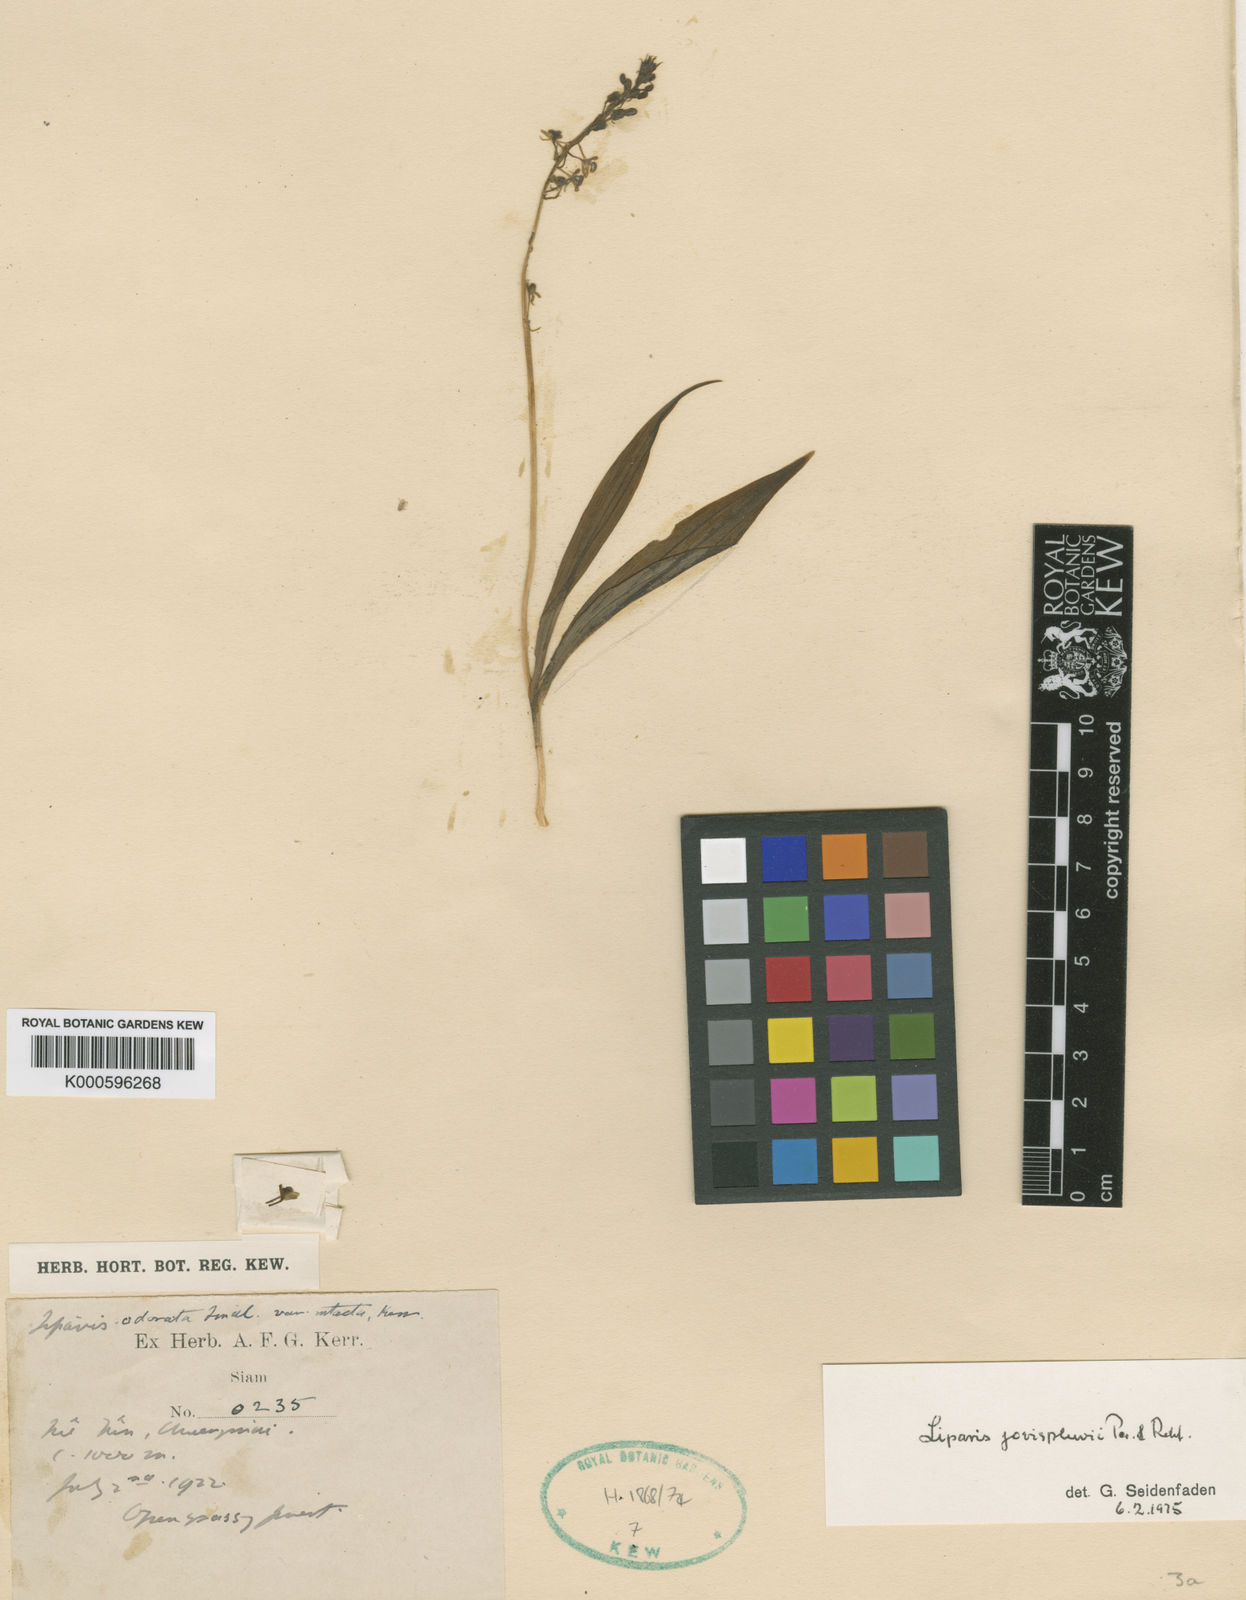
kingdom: Plantae
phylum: Tracheophyta
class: Liliopsida
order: Asparagales
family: Orchidaceae
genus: Liparis
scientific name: Liparis odorata
